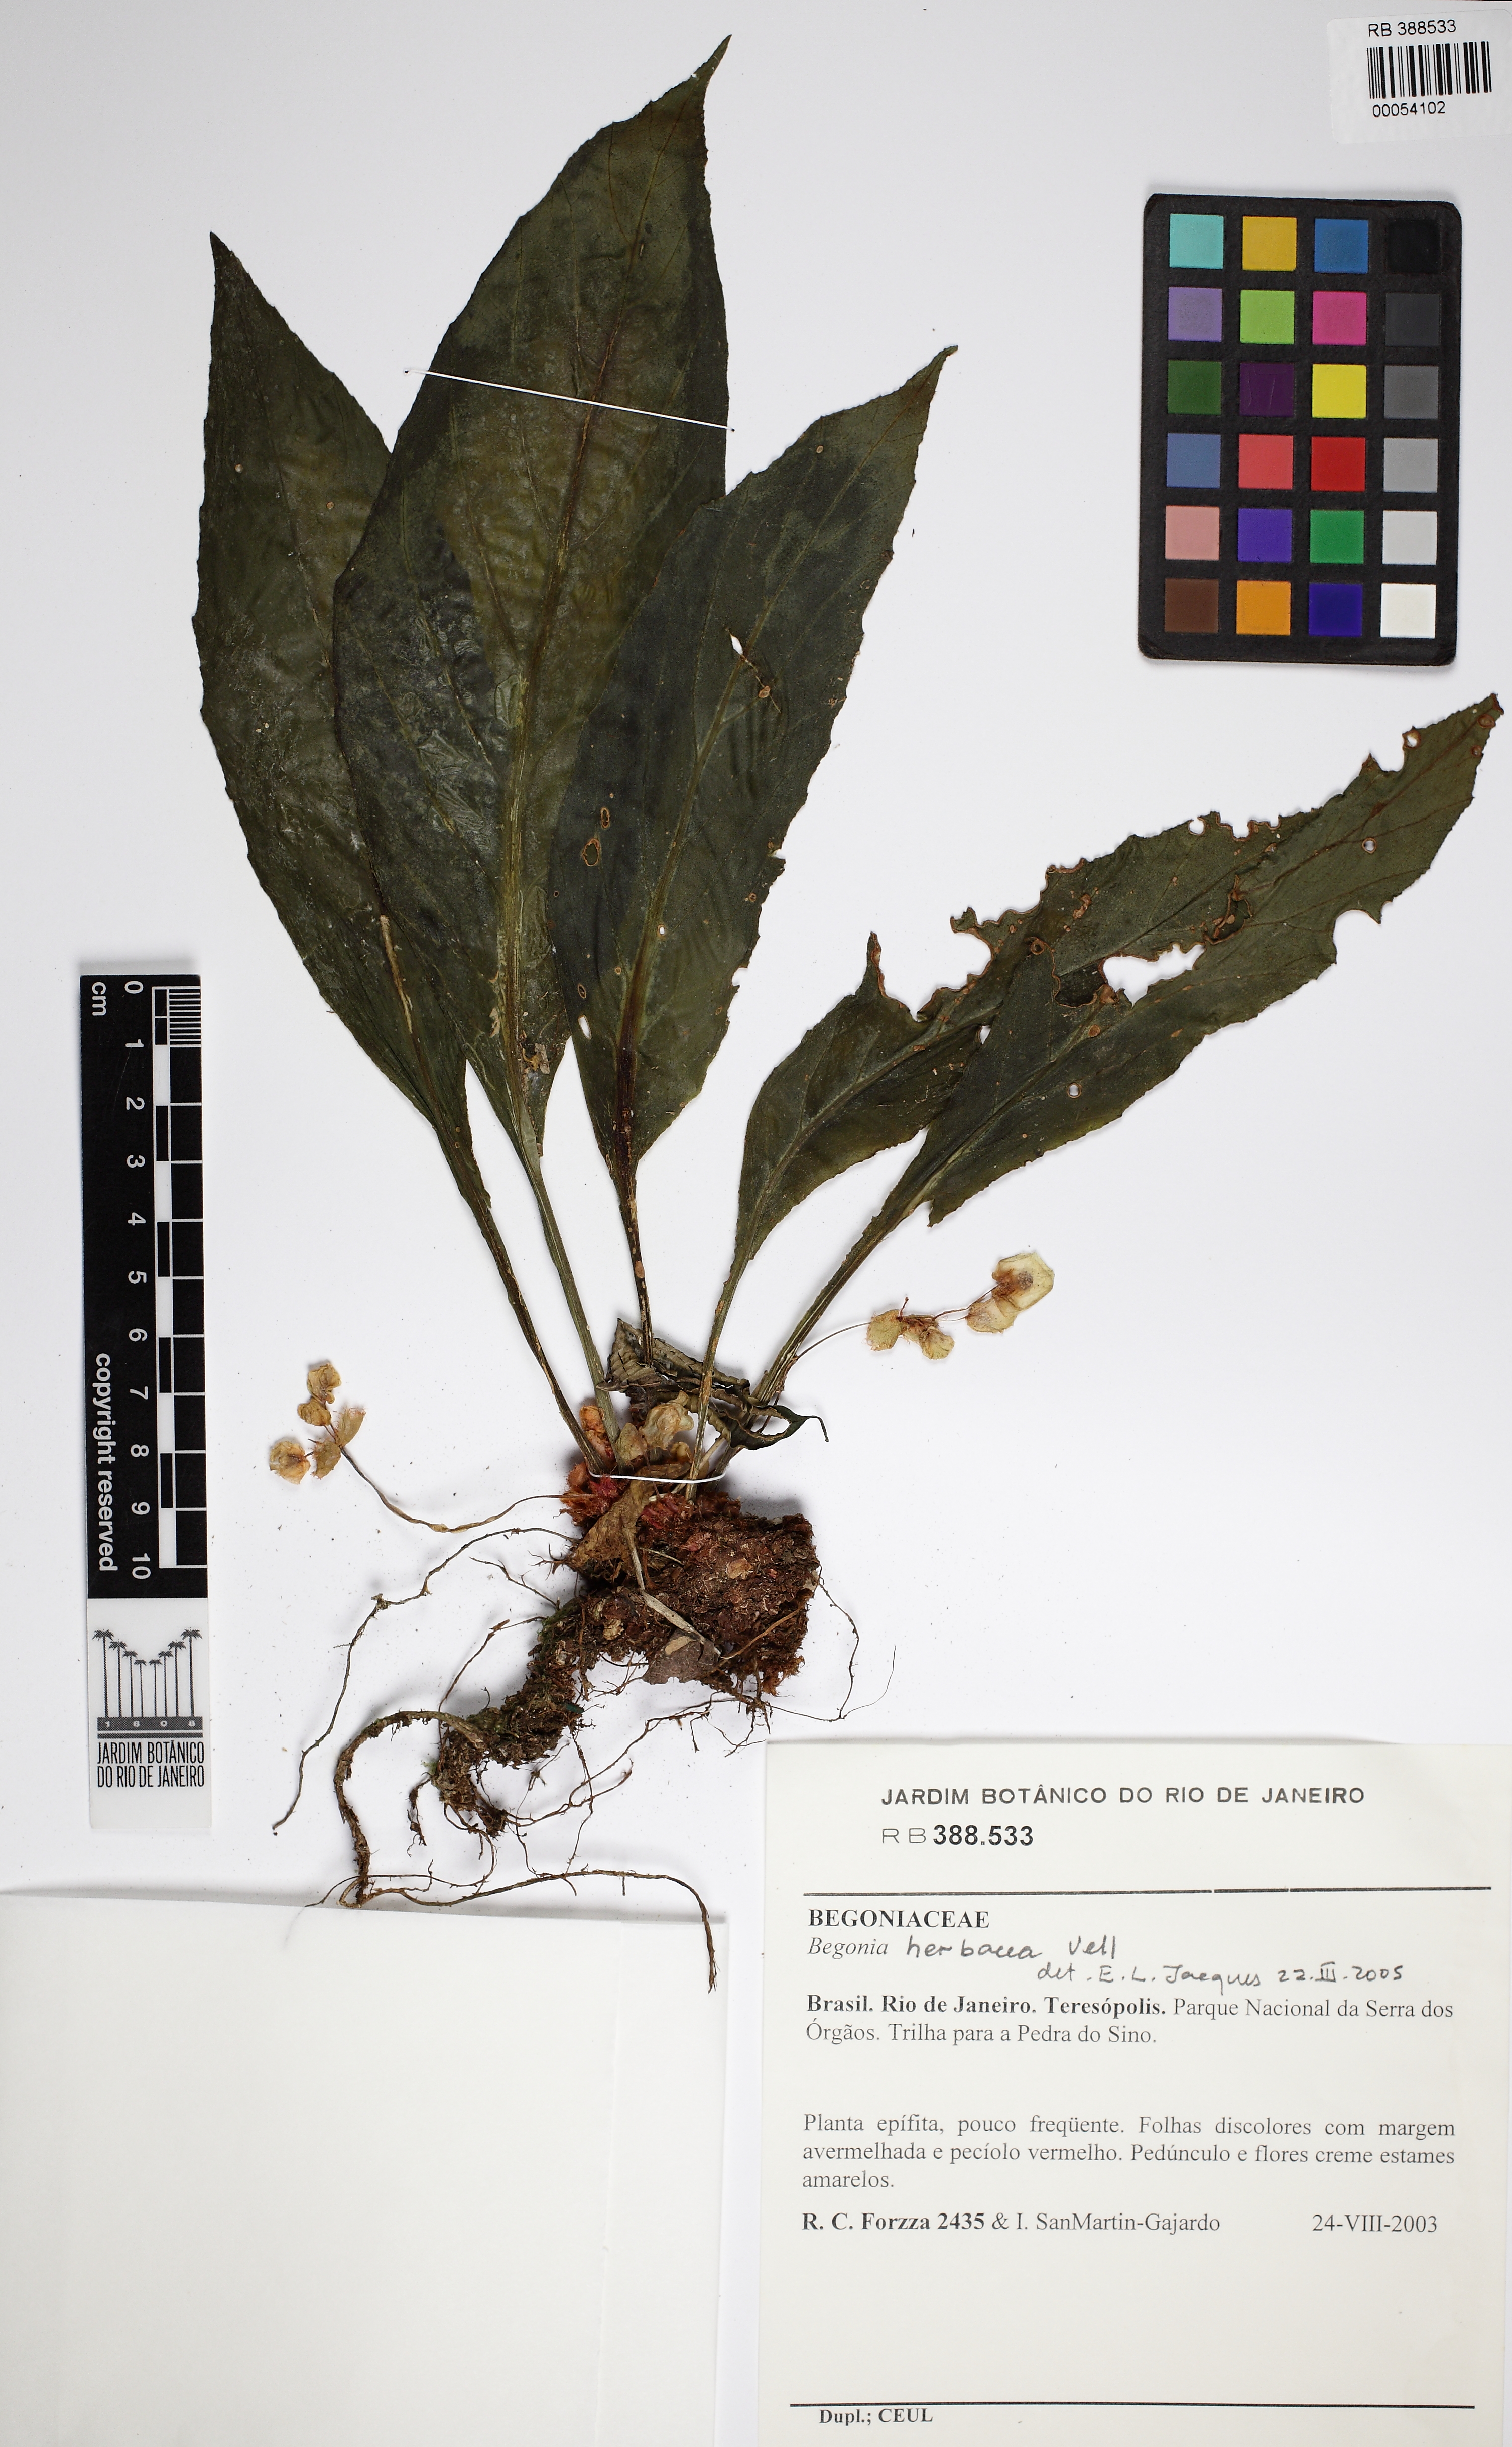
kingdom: Plantae
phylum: Tracheophyta
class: Magnoliopsida
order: Cucurbitales
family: Begoniaceae
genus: Begonia
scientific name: Begonia herbacea
